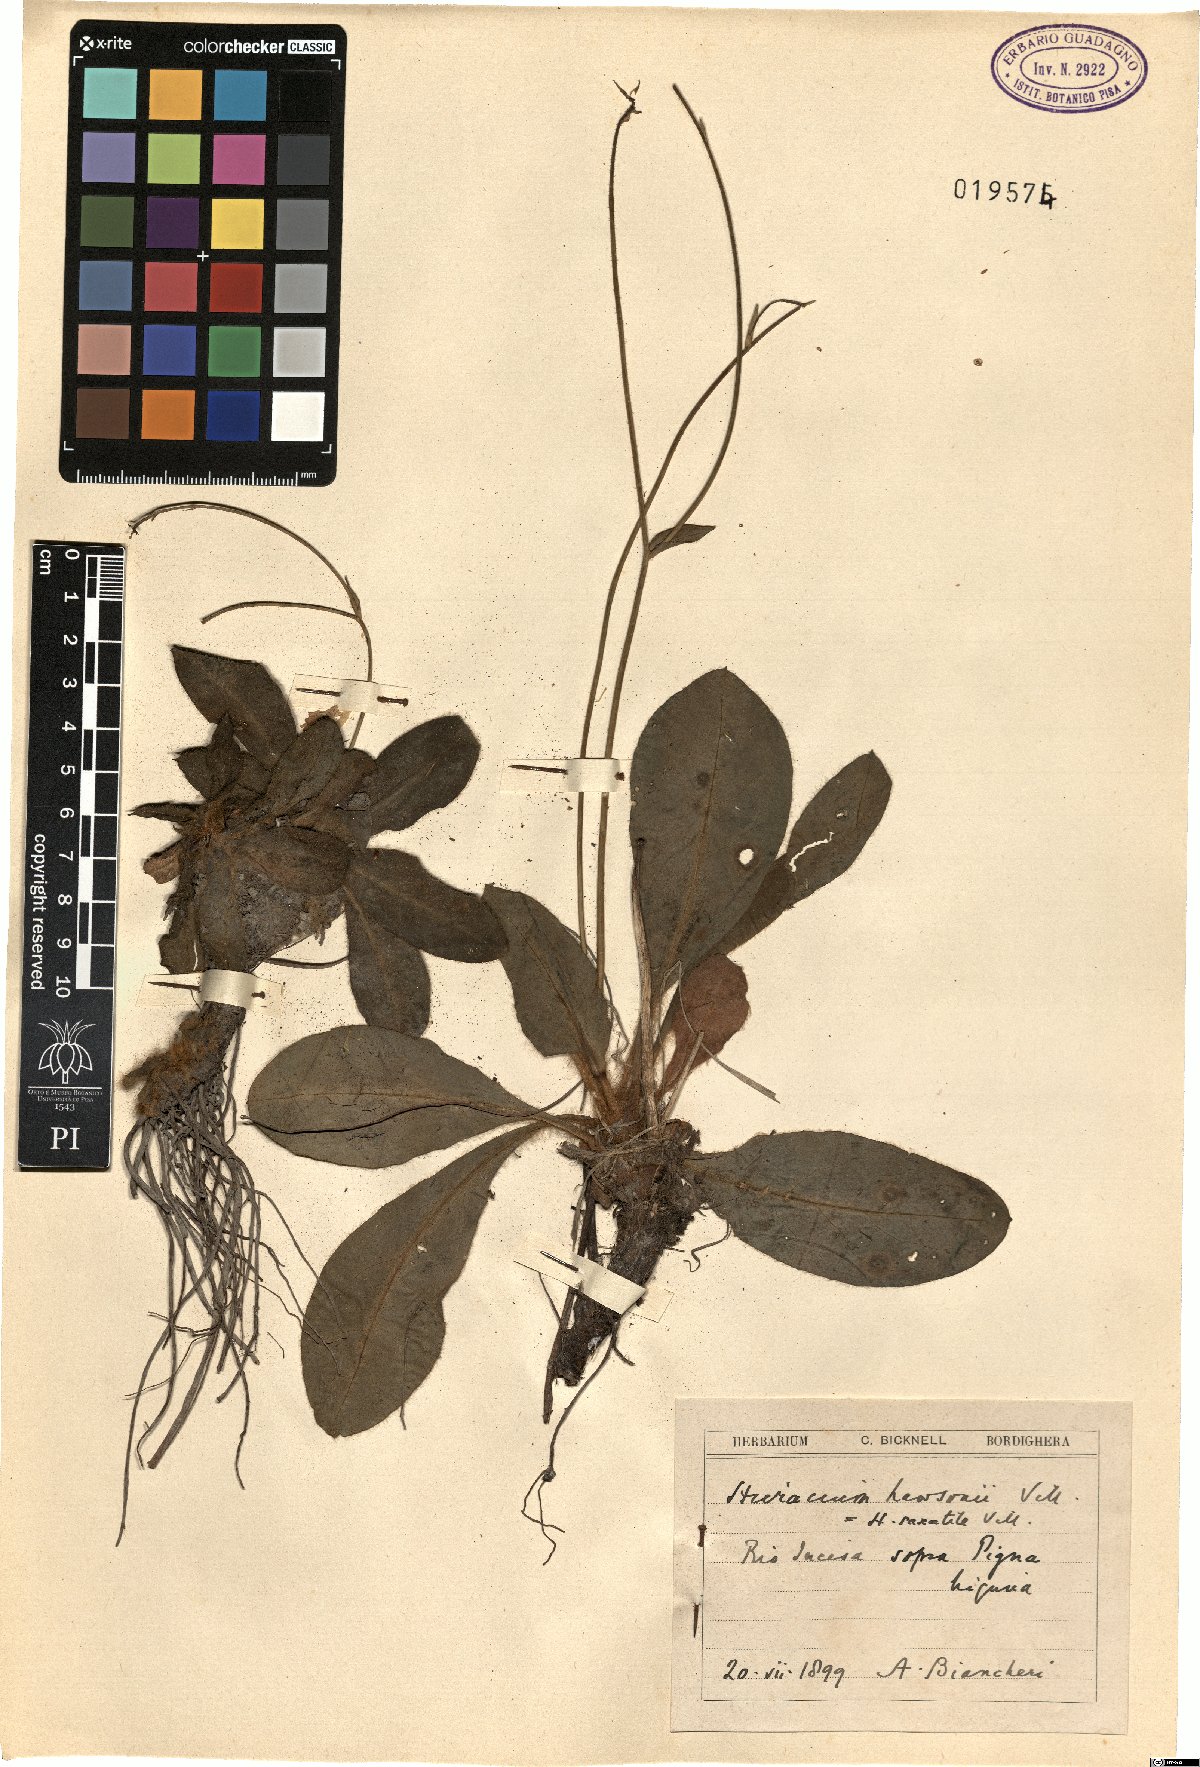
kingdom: Plantae
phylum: Tracheophyta
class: Magnoliopsida
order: Asterales
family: Asteraceae
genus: Hieracium
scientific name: Hieracium lawsonii
